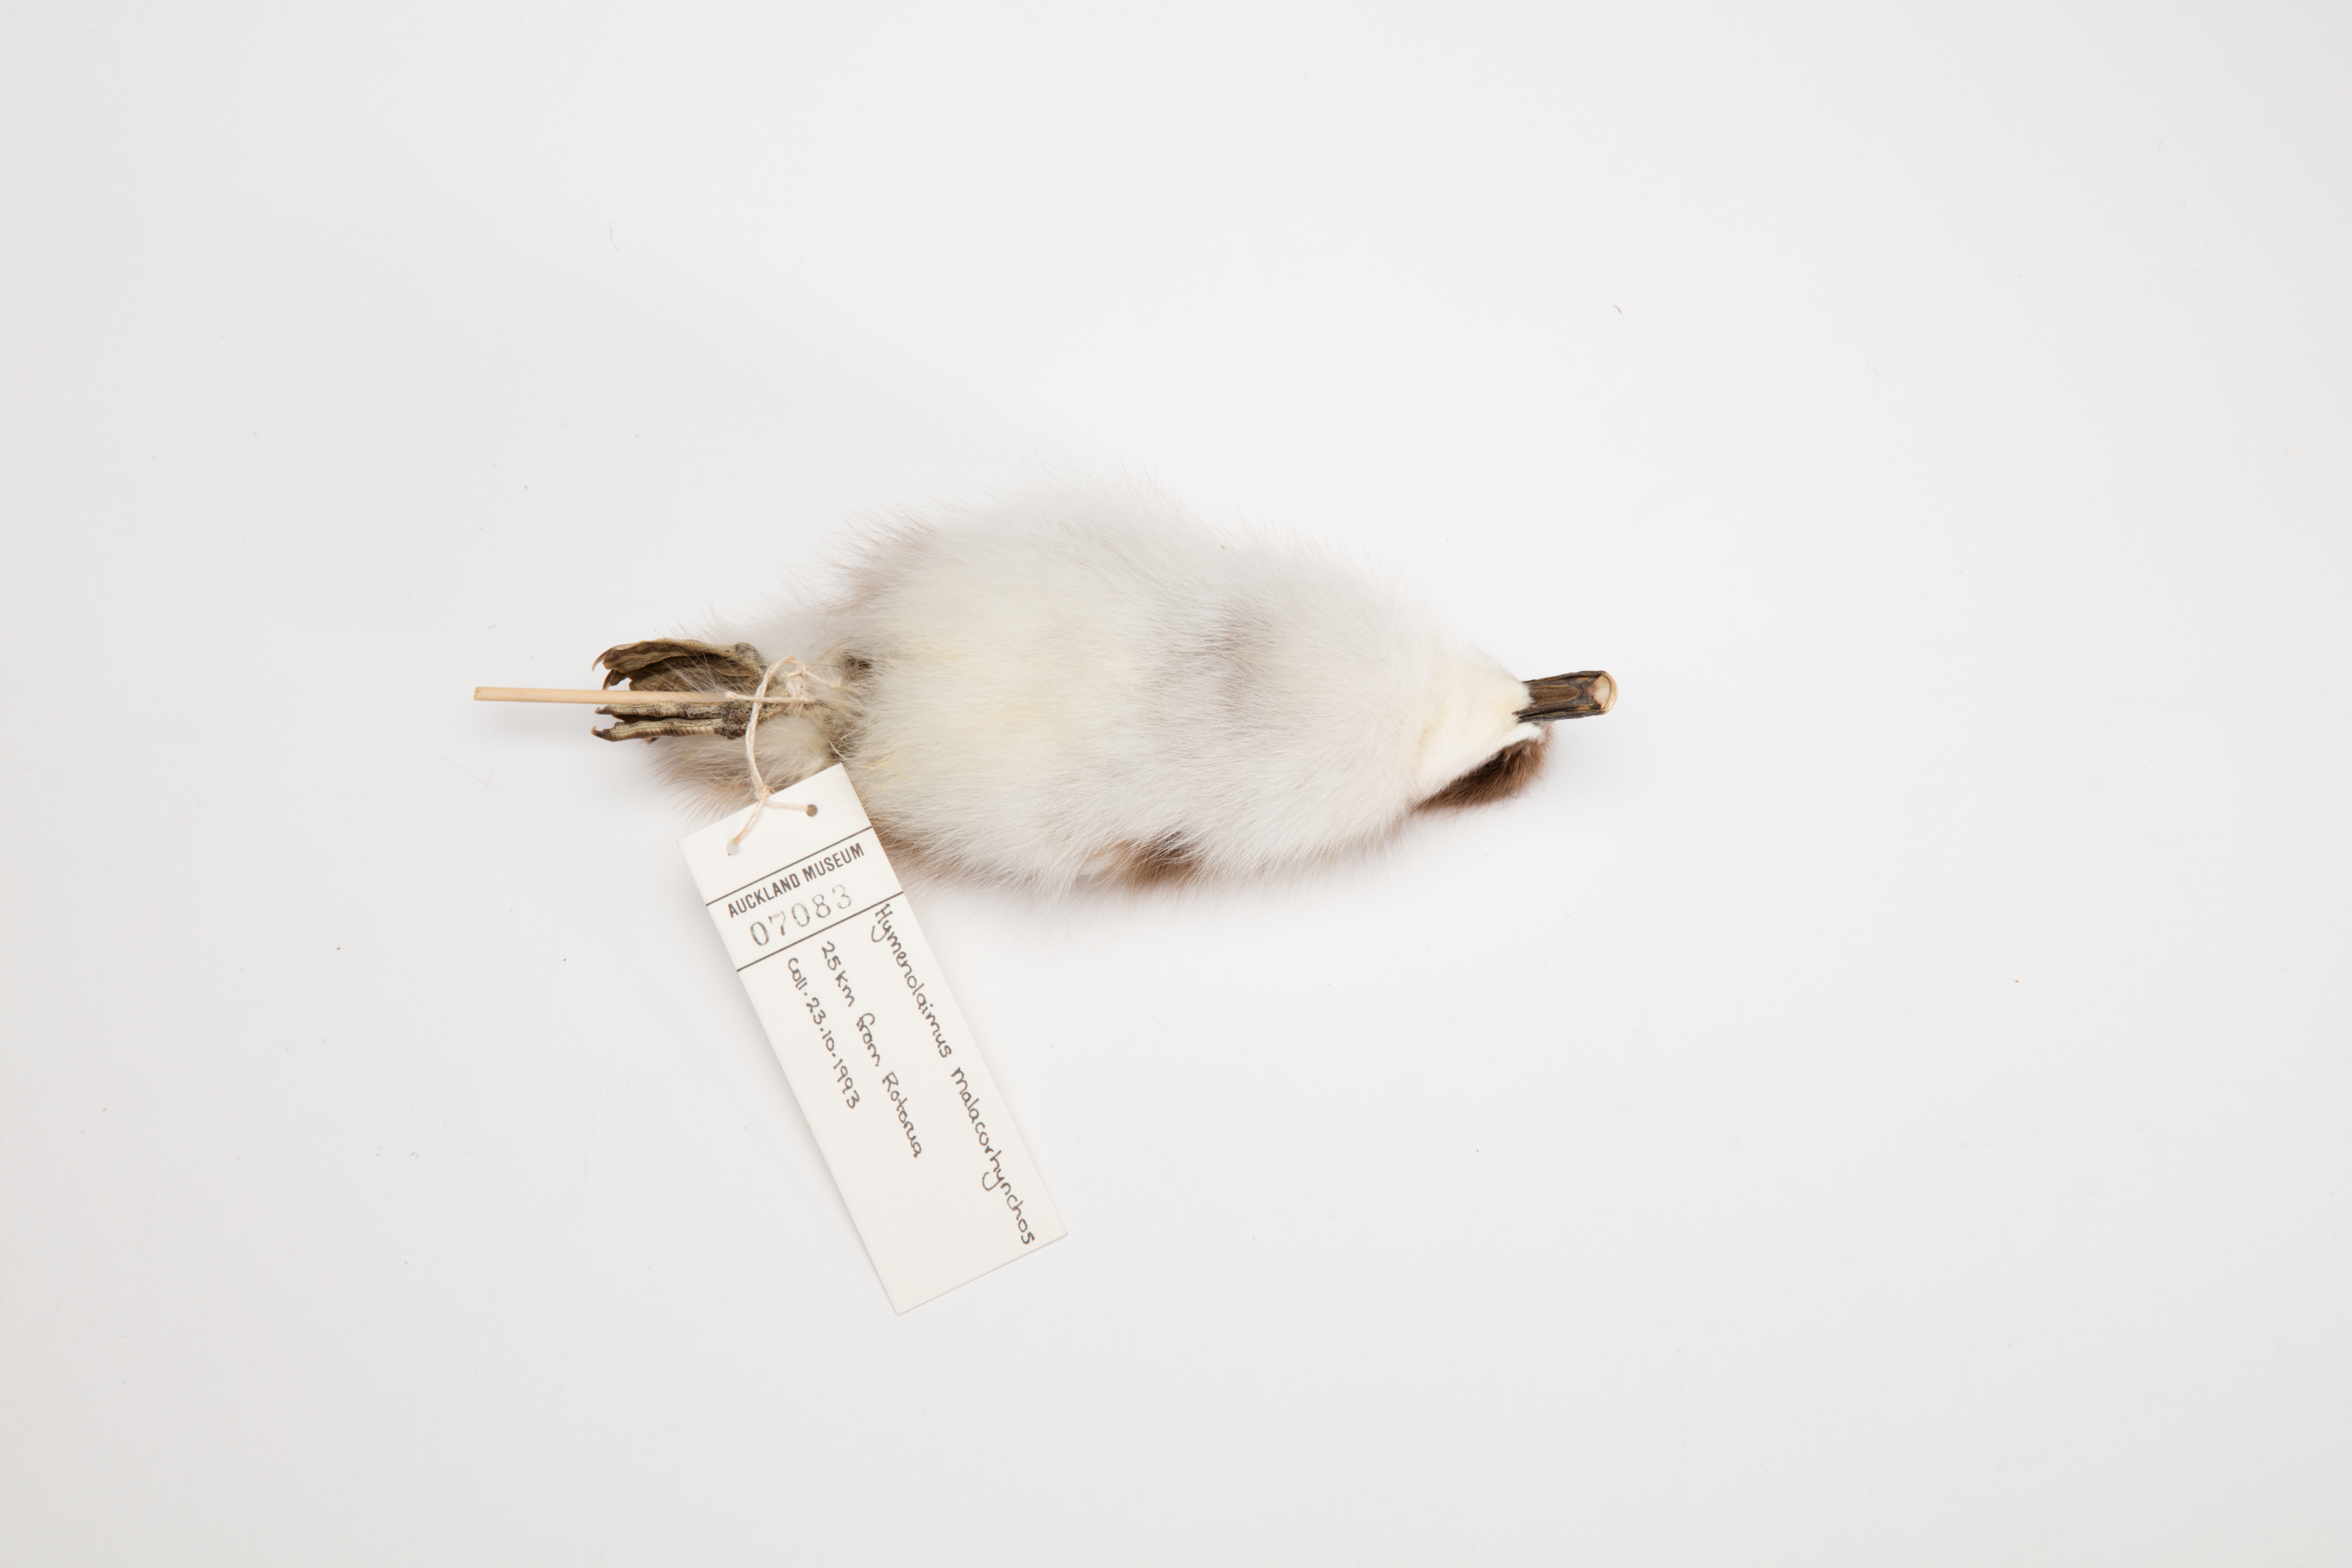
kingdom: Animalia
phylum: Chordata
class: Aves
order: Anseriformes
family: Anatidae
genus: Hymenolaimus
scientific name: Hymenolaimus malacorhynchos
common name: Blue duck
